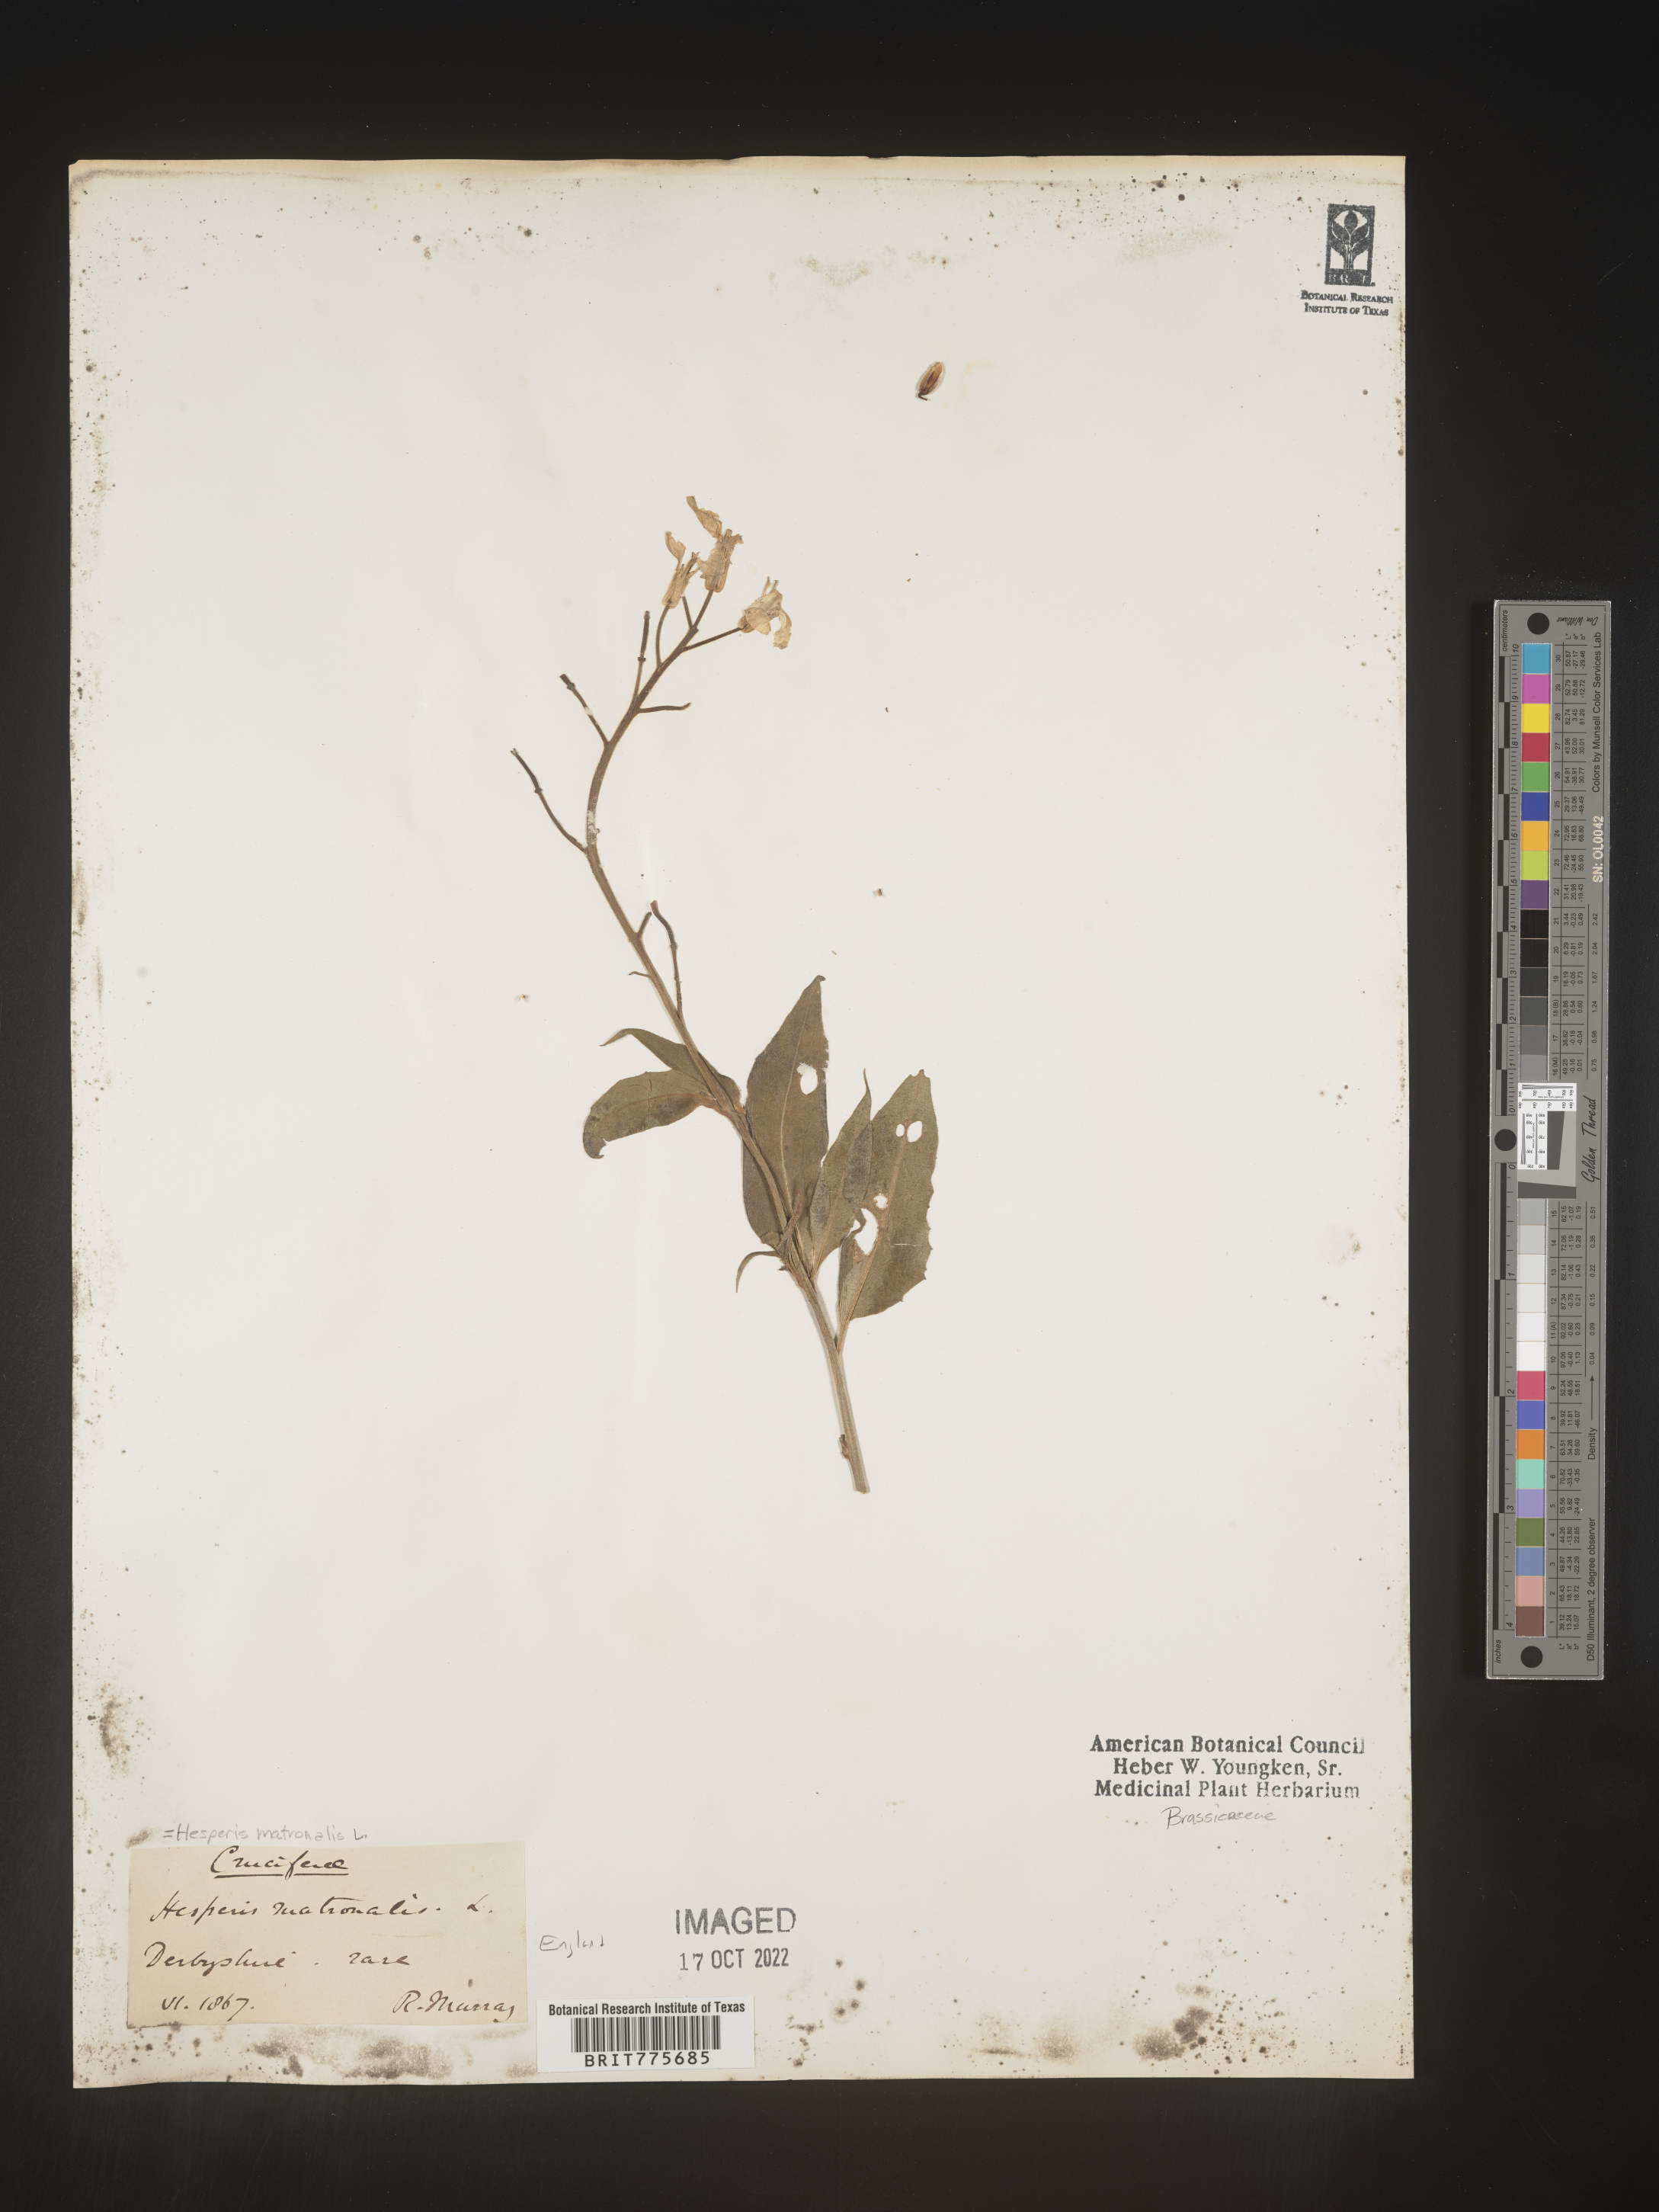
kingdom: Plantae
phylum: Tracheophyta
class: Magnoliopsida
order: Brassicales
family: Brassicaceae
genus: Hesperis
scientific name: Hesperis
